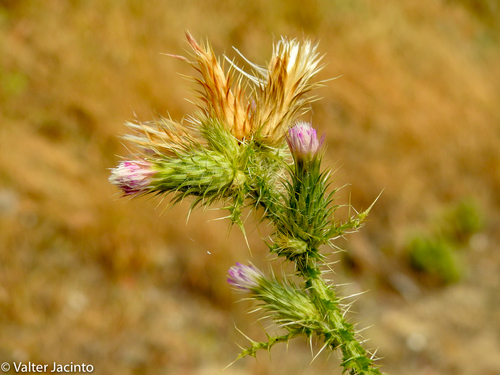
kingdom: Plantae
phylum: Tracheophyta
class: Magnoliopsida
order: Asterales
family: Asteraceae
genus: Carduus
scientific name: Carduus tenuiflorus
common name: Slender thistle
